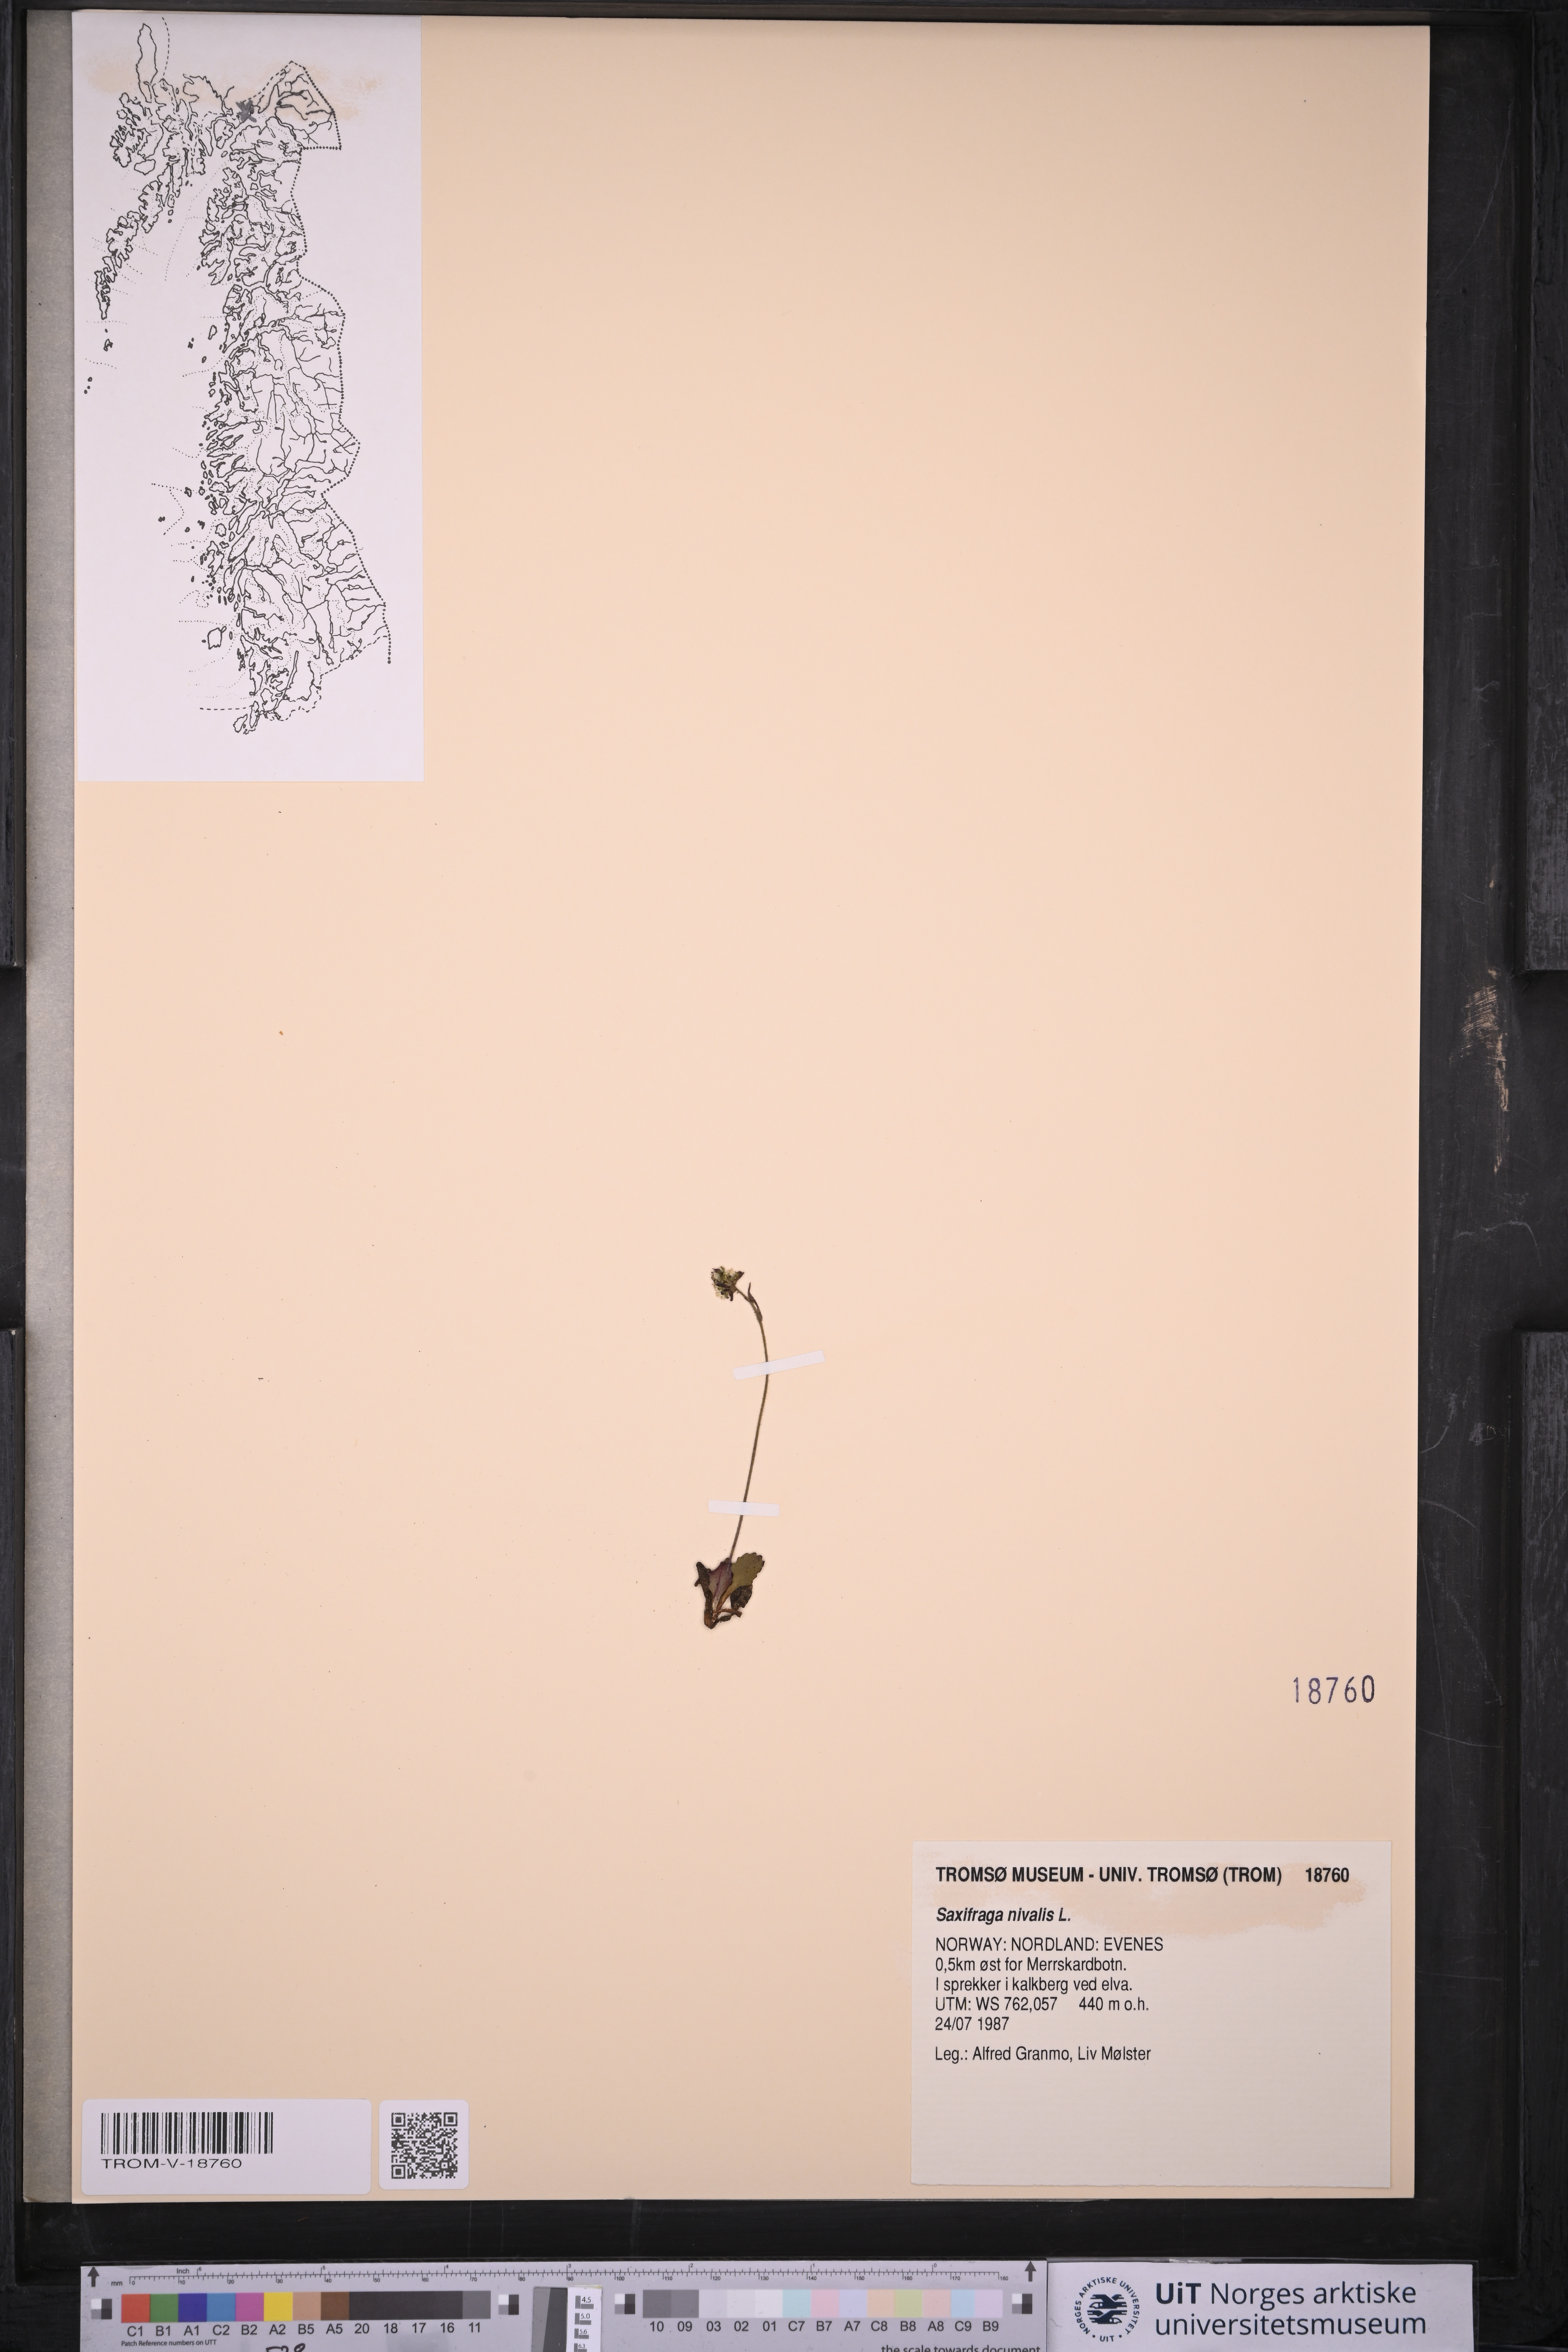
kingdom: Plantae
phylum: Tracheophyta
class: Magnoliopsida
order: Saxifragales
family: Saxifragaceae
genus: Micranthes
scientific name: Micranthes nivalis
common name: Alpine saxifrage
